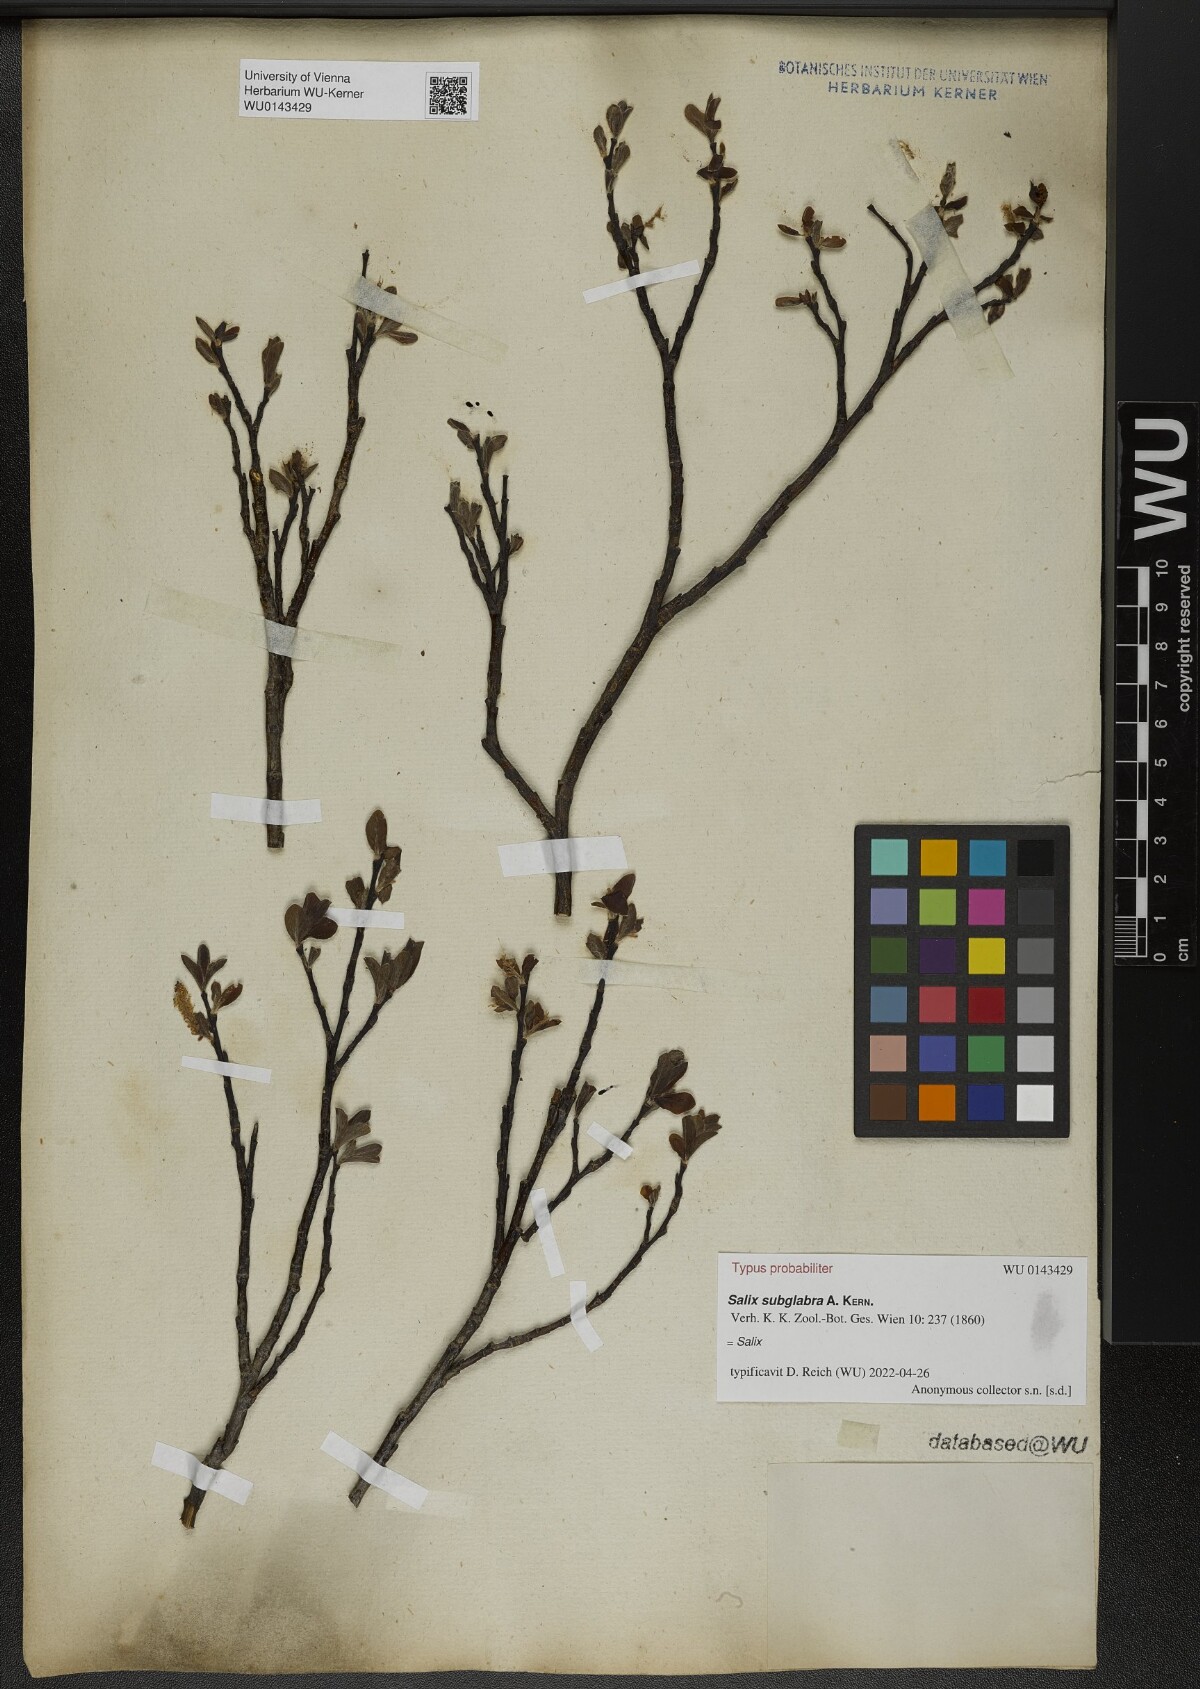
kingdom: Plantae
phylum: Tracheophyta
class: Magnoliopsida
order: Malpighiales
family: Salicaceae
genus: Salix
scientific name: Salix subglabra
